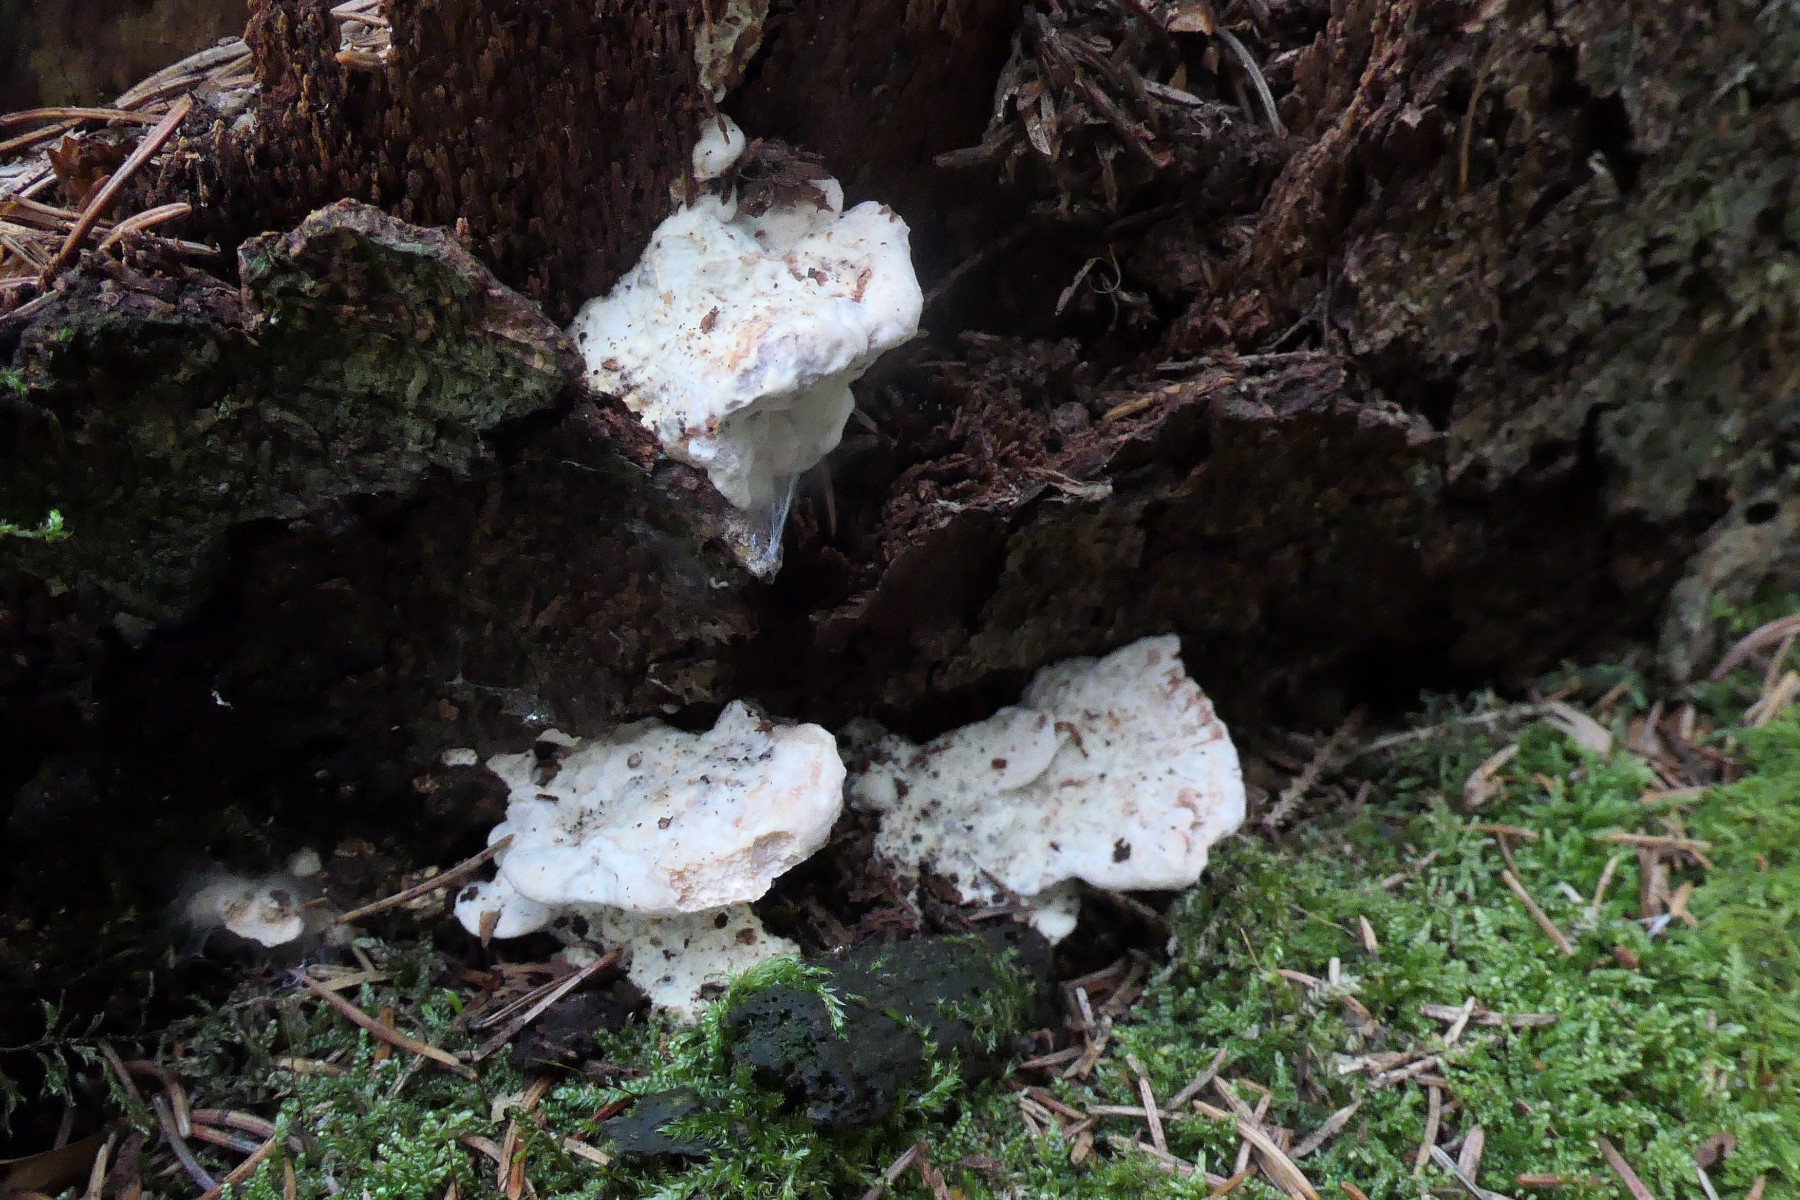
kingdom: Fungi
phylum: Basidiomycota
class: Agaricomycetes
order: Polyporales
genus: Calcipostia
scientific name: Calcipostia guttulata
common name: dråbe-kødporesvamp
